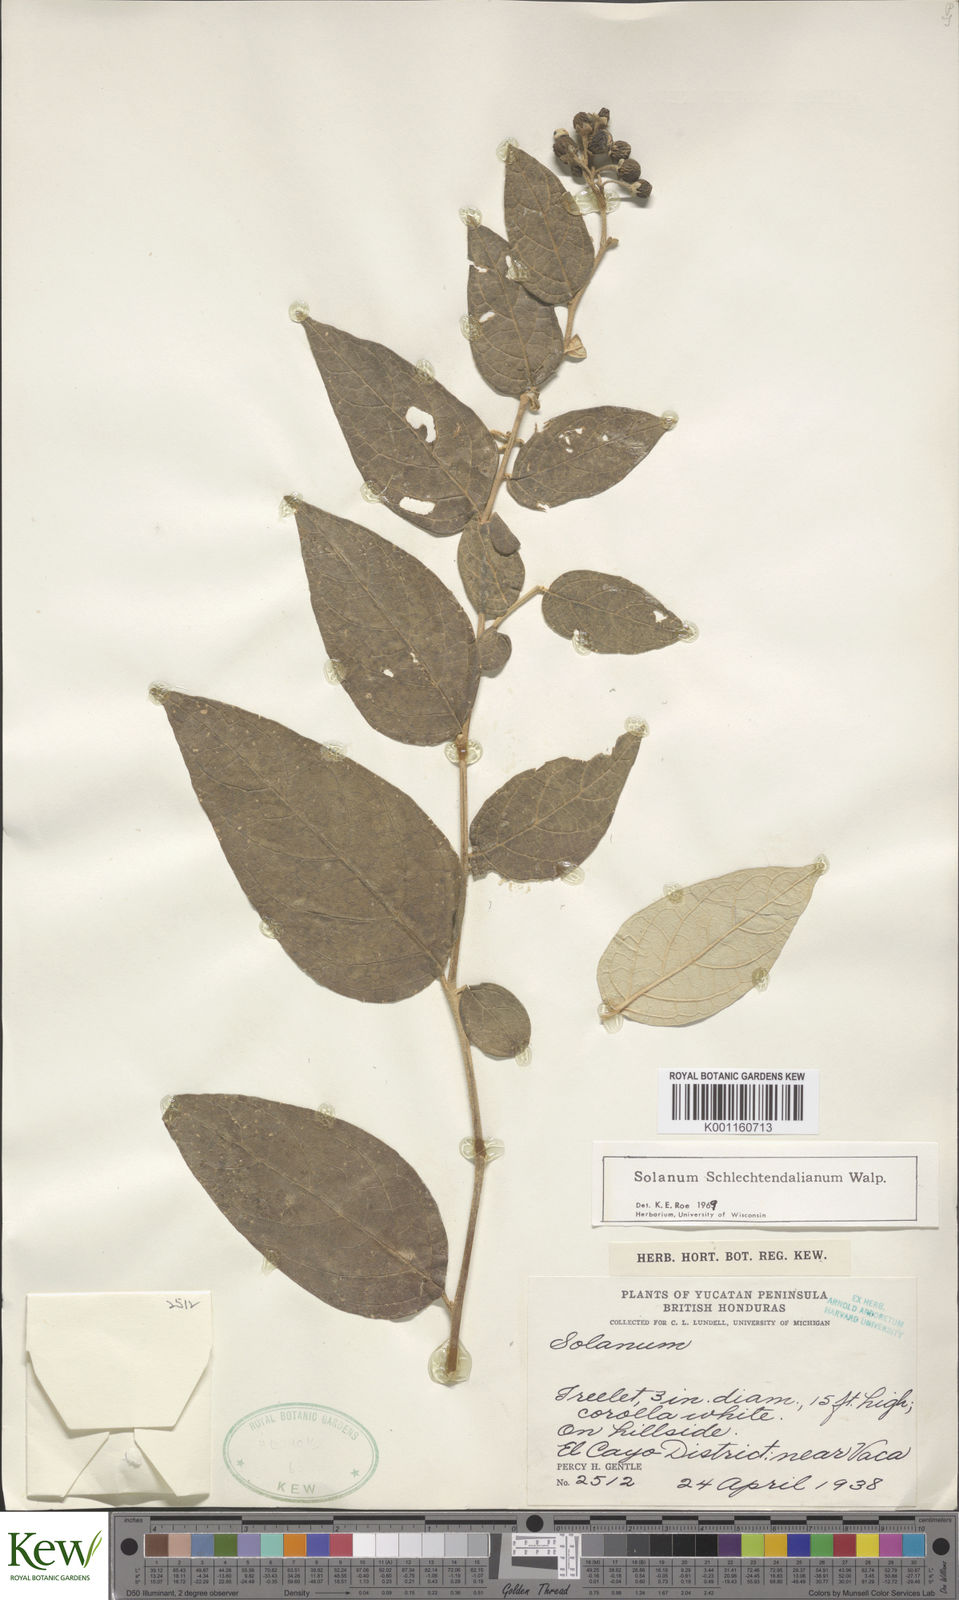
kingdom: Plantae
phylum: Tracheophyta
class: Magnoliopsida
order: Solanales
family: Solanaceae
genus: Solanum
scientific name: Solanum schlechtendalianum
